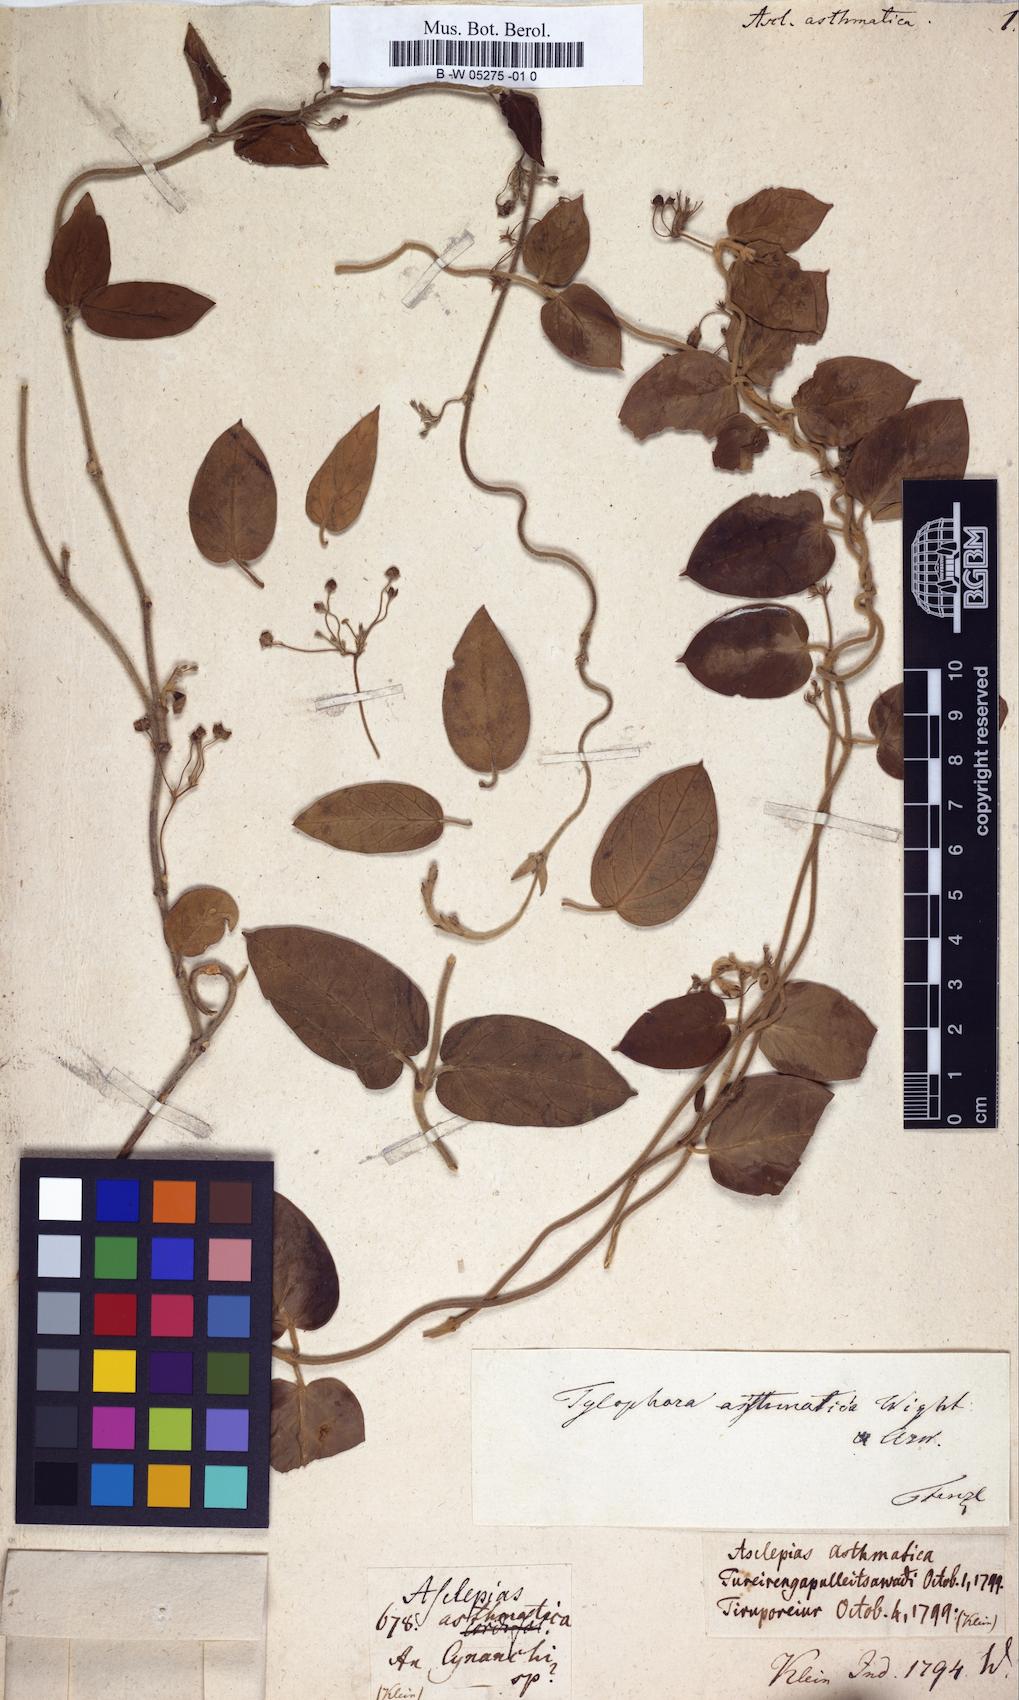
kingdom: Plantae
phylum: Tracheophyta
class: Magnoliopsida
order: Gentianales
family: Apocynaceae
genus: Vincetoxicum
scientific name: Vincetoxicum indicum
